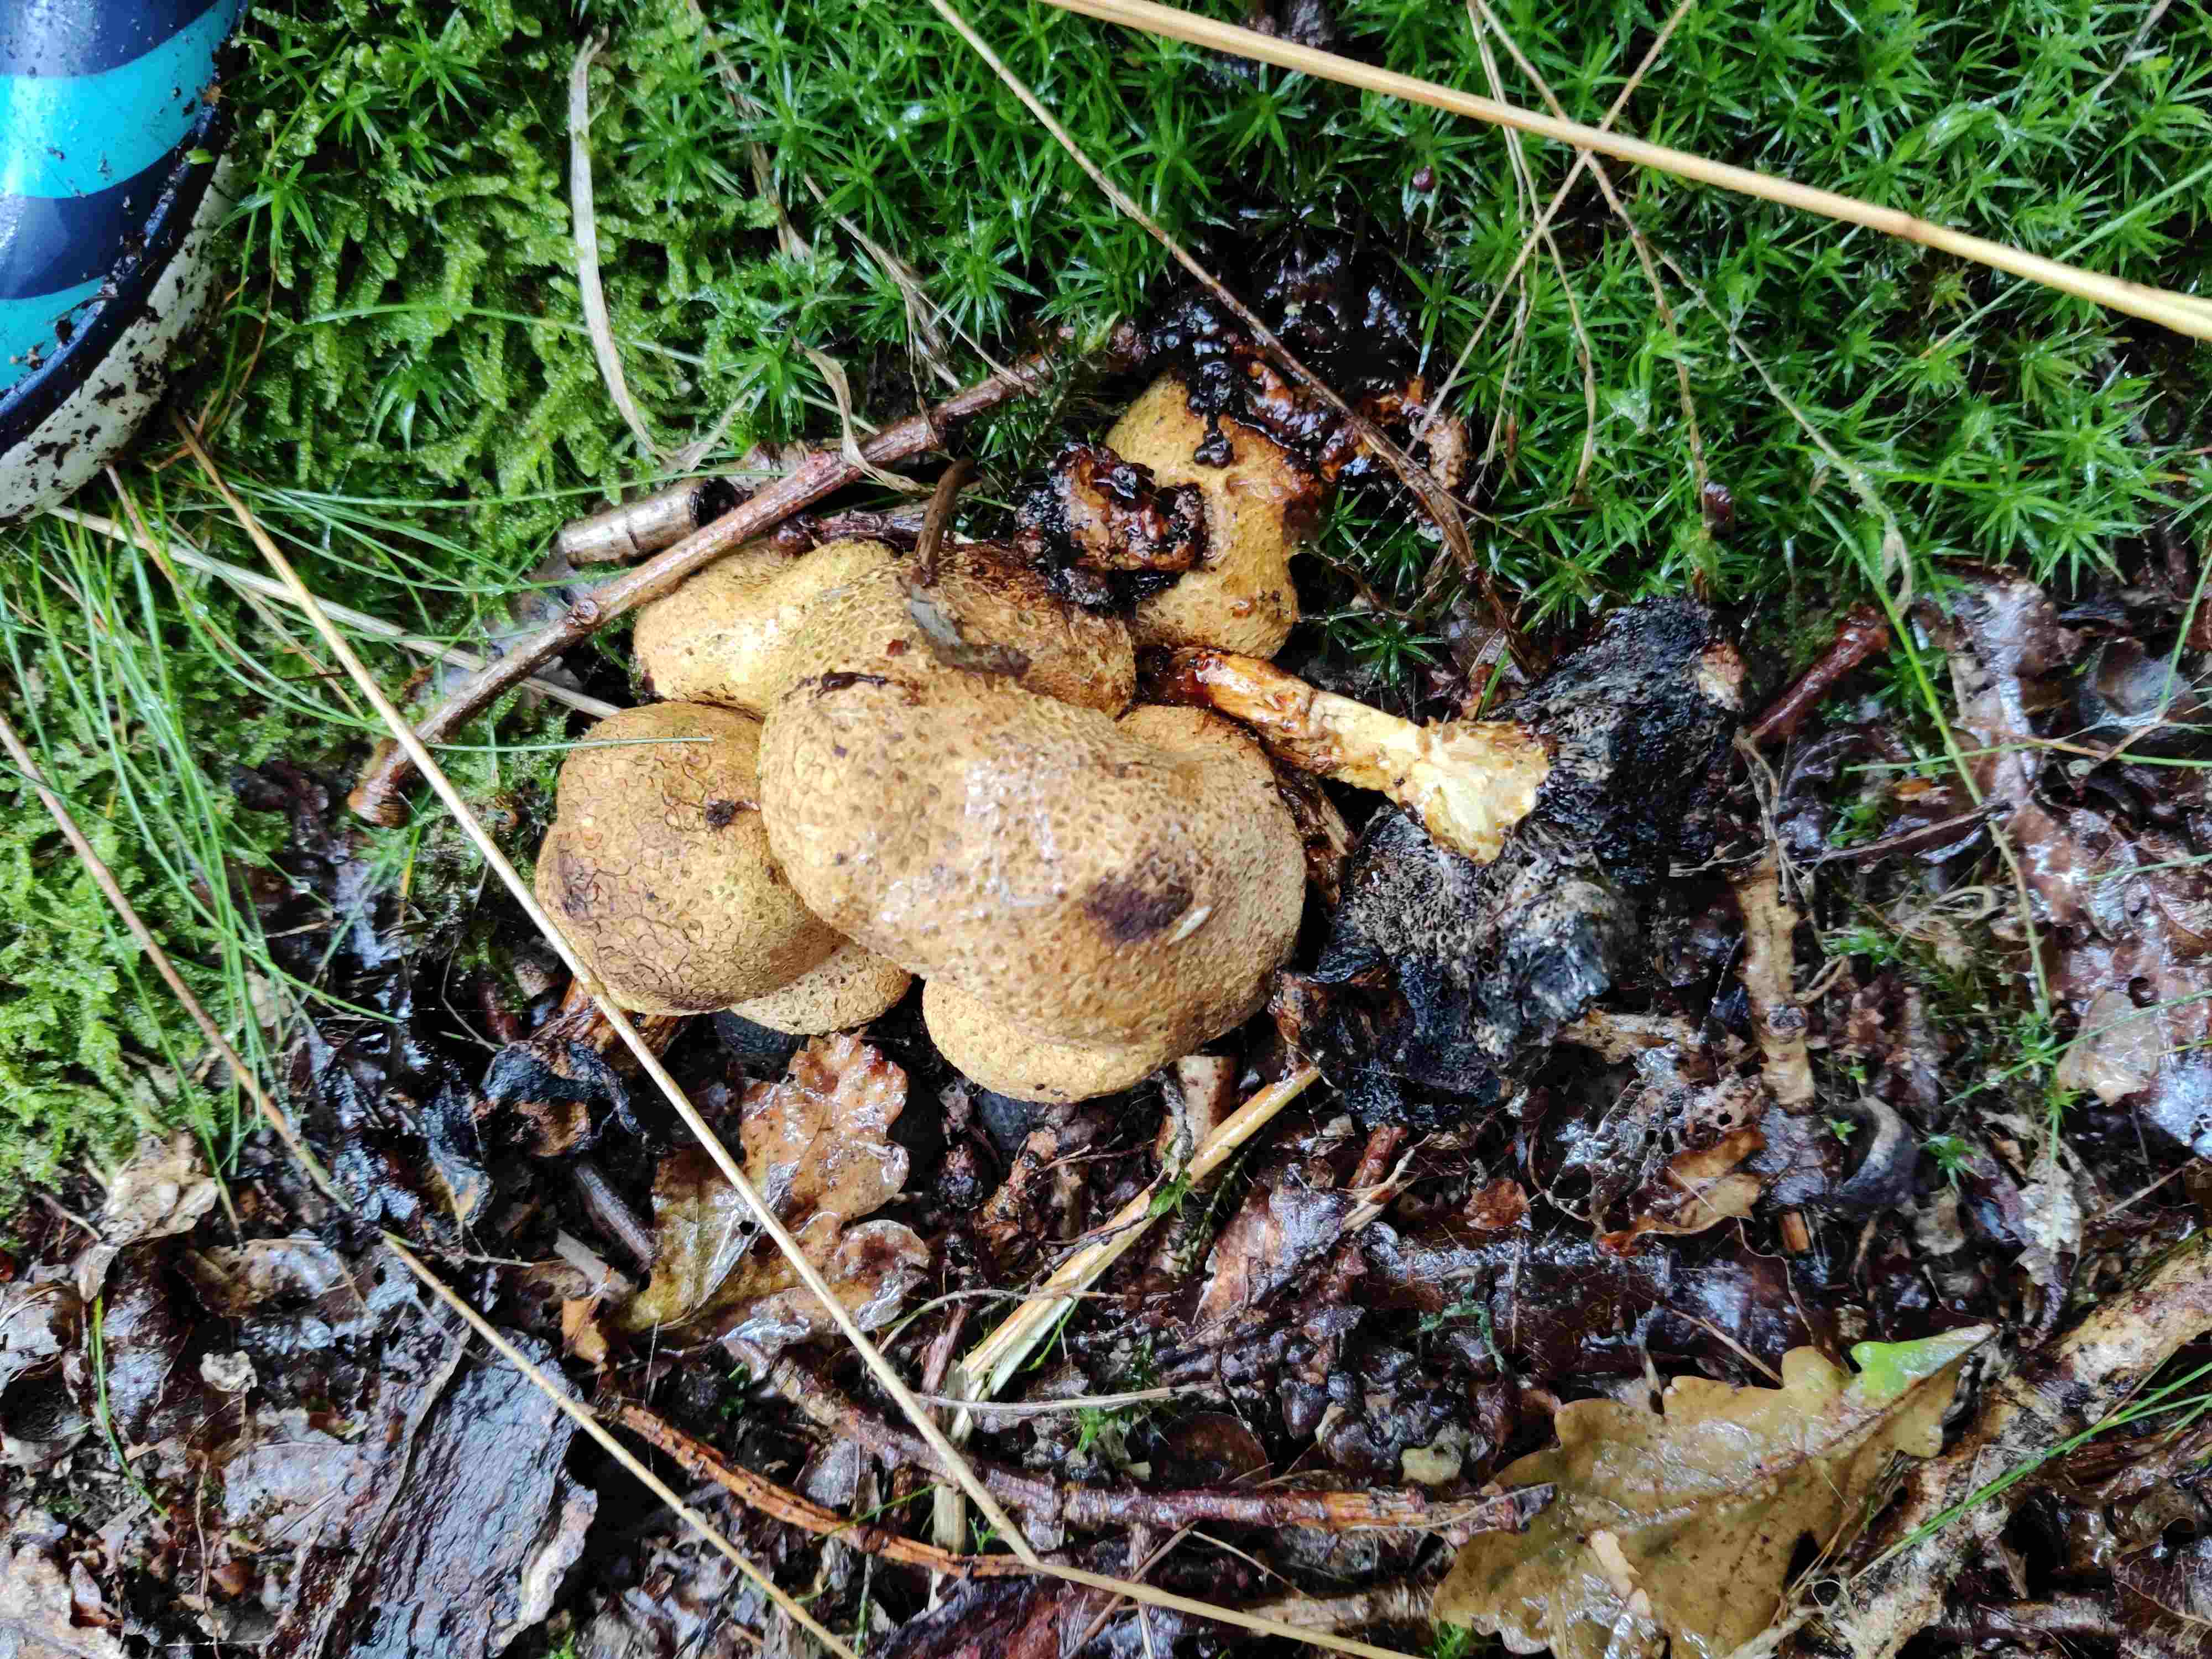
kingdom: Fungi
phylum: Basidiomycota
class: Agaricomycetes
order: Boletales
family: Boletaceae
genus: Pseudoboletus
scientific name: Pseudoboletus parasiticus
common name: snyltende rørhat
